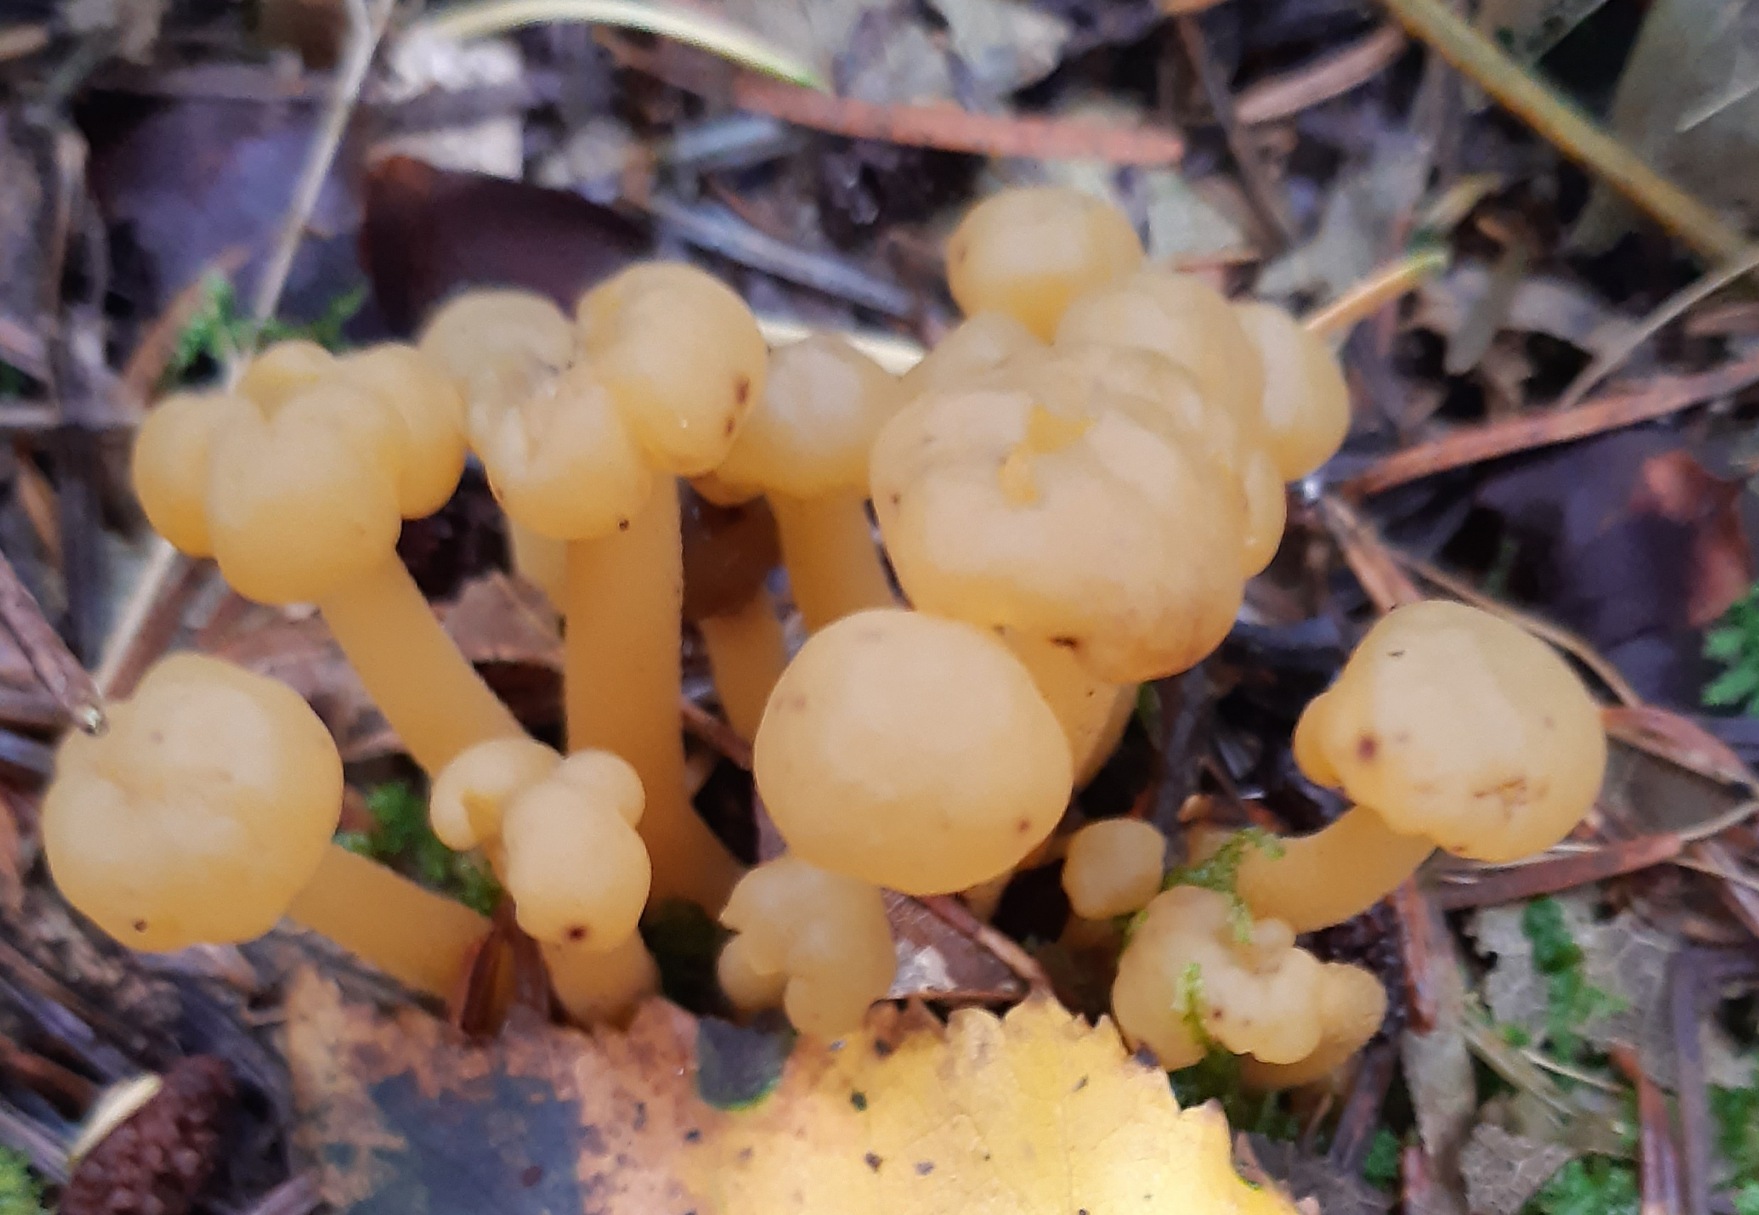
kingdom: Fungi
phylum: Ascomycota
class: Leotiomycetes
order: Leotiales
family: Leotiaceae
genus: Leotia
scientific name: Leotia lubrica
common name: Ravsvamp
